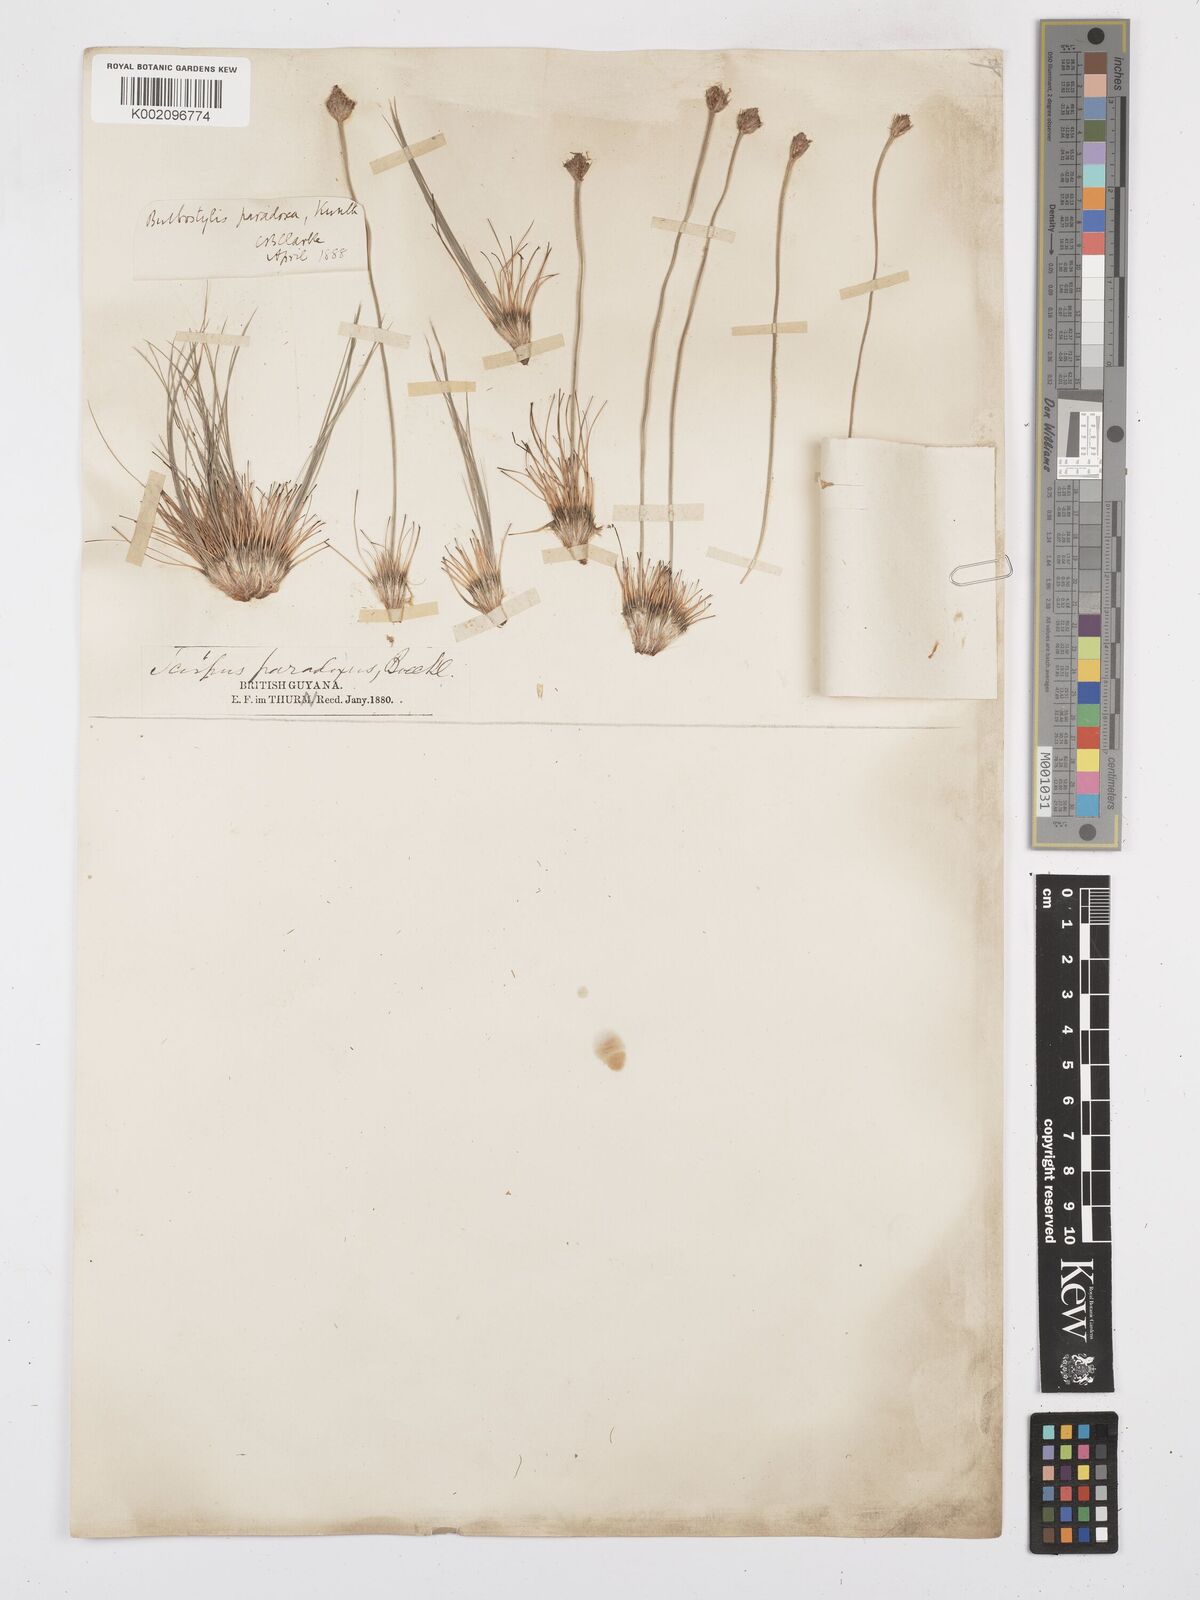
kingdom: Plantae
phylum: Tracheophyta
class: Liliopsida
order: Poales
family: Cyperaceae
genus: Bulbostylis
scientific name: Bulbostylis paradoxa
